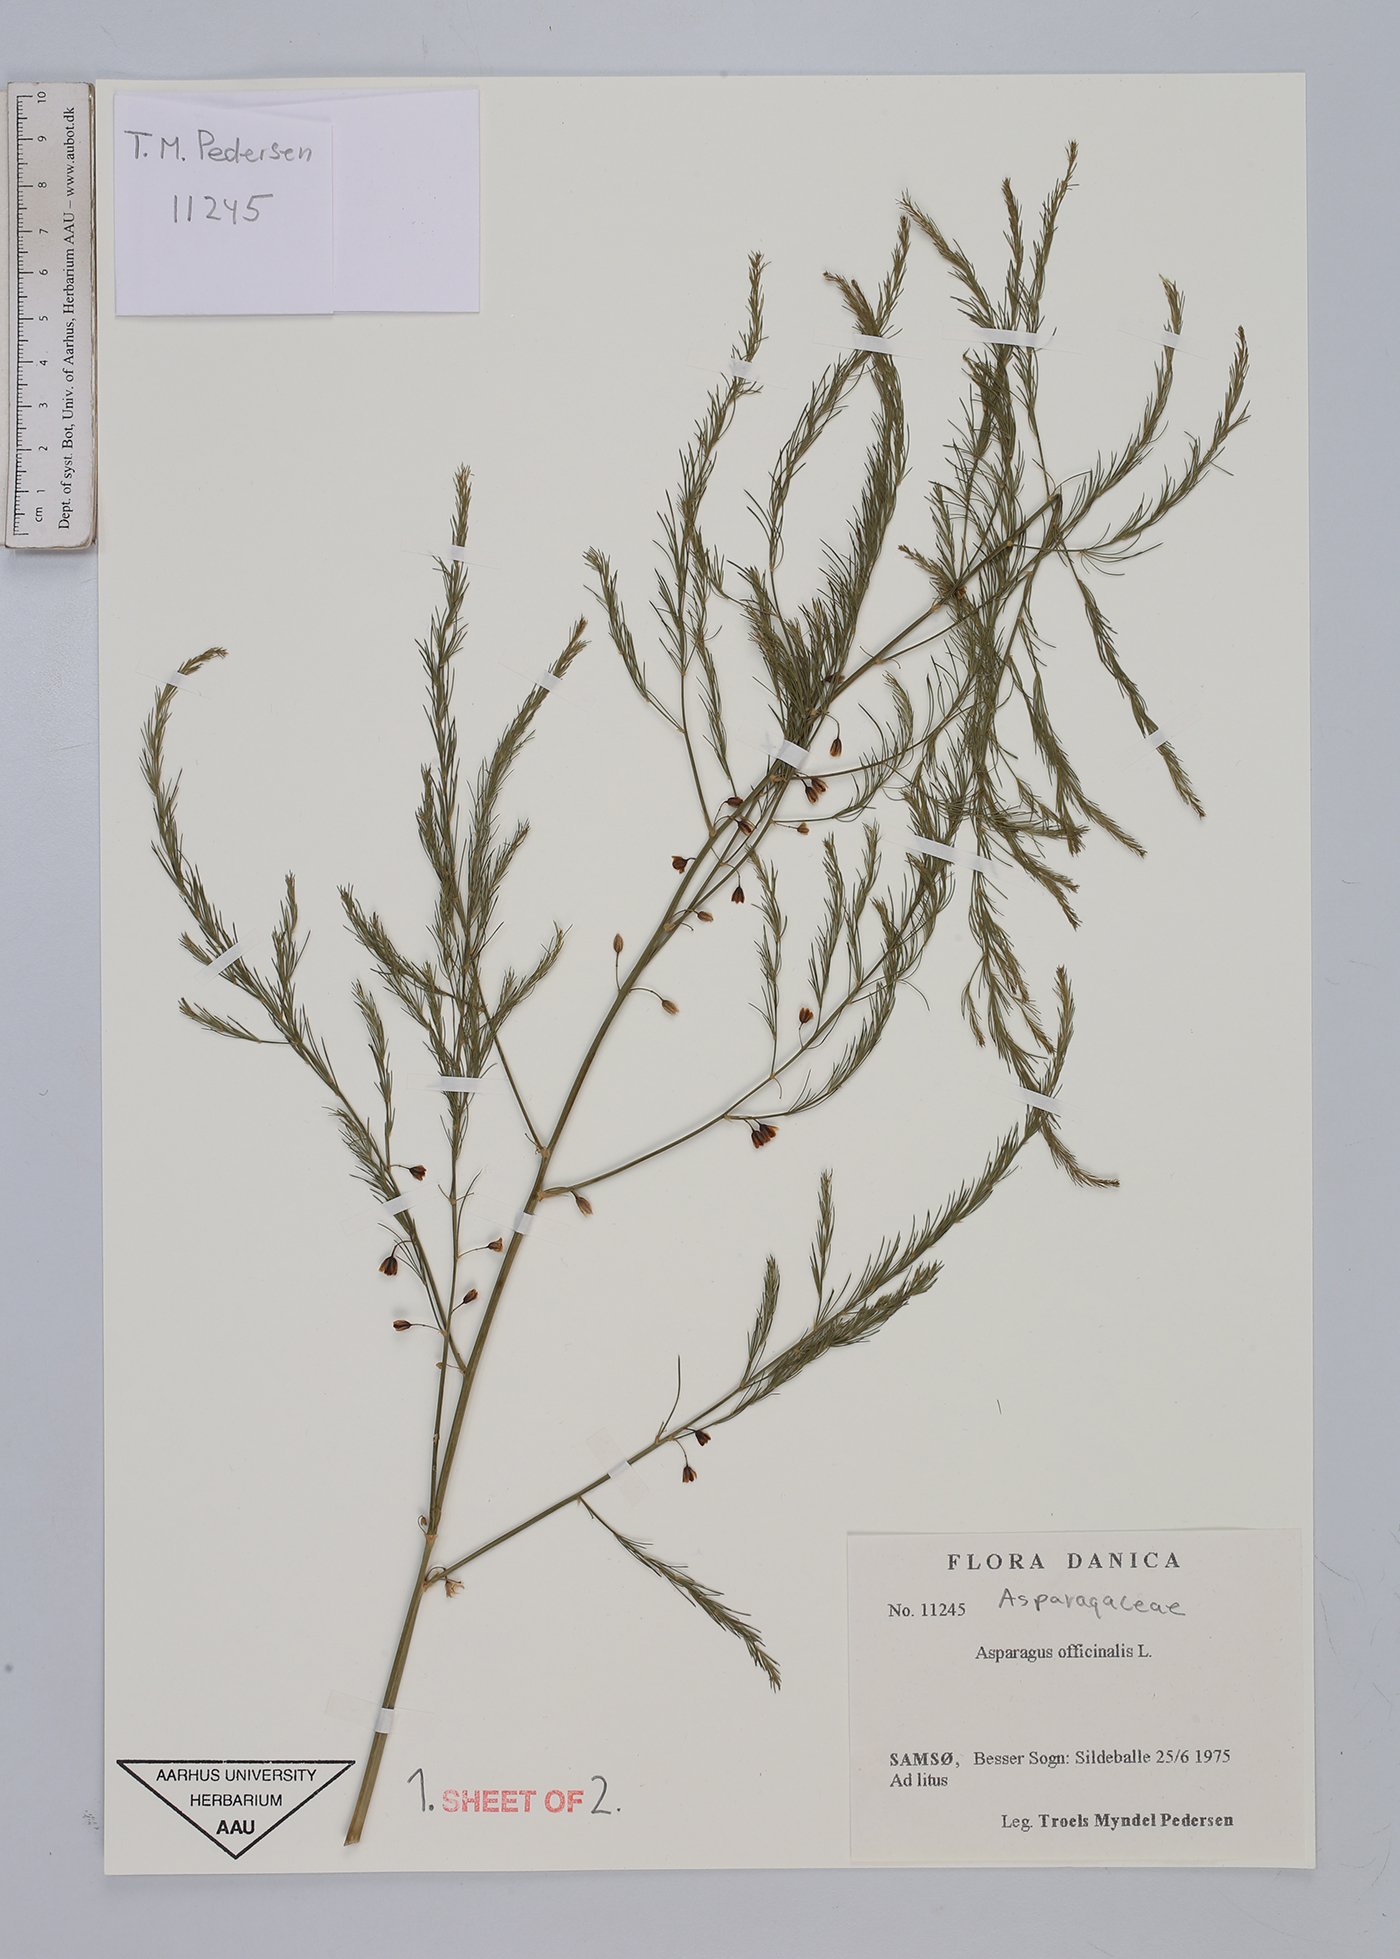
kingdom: Plantae
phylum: Tracheophyta
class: Liliopsida
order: Asparagales
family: Asparagaceae
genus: Asparagus
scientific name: Asparagus officinalis
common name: Garden asparagus
